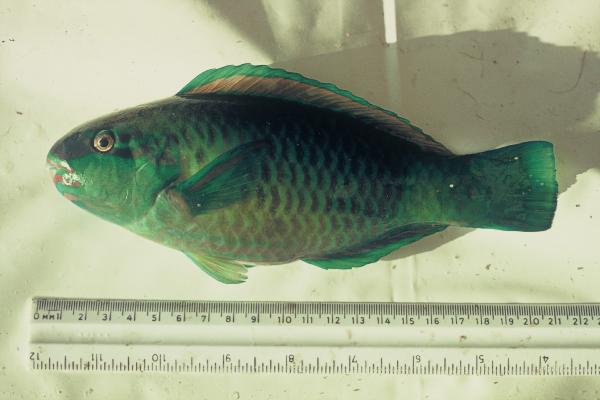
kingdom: Animalia
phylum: Chordata
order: Perciformes
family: Scaridae
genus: Chlorurus
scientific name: Chlorurus sordidus
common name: Bullethead parrotfish
